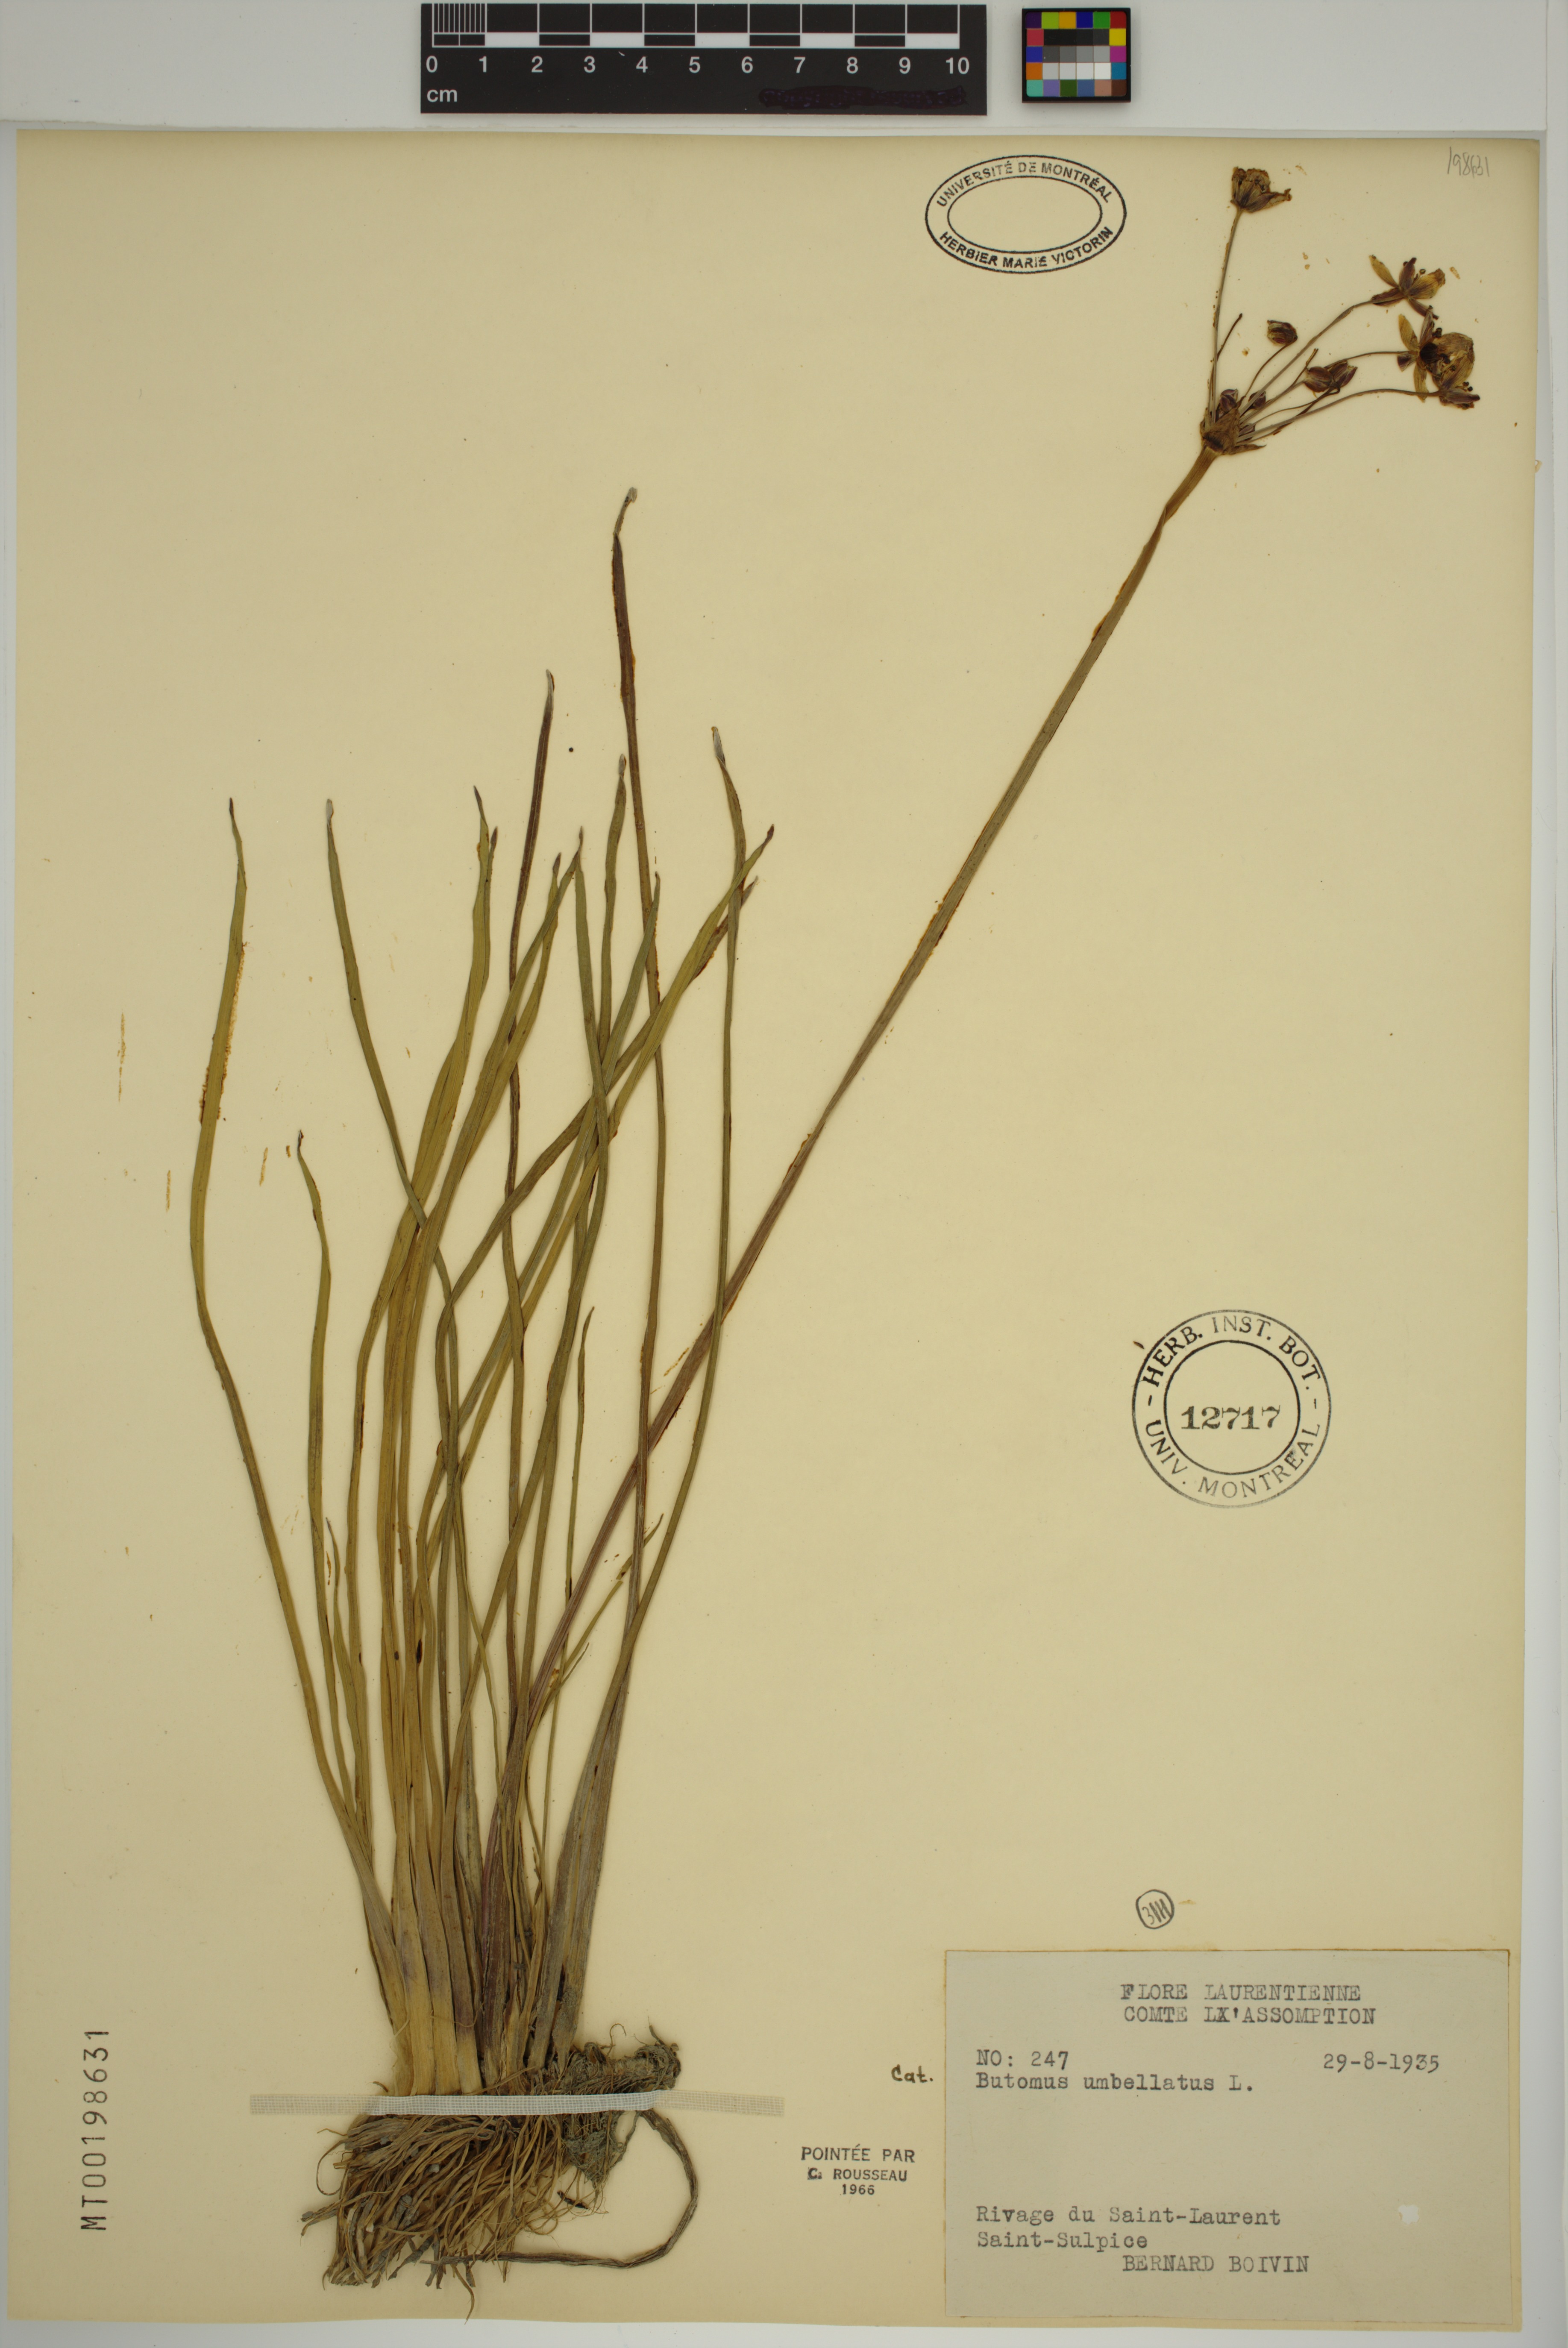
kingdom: Plantae
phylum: Tracheophyta
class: Liliopsida
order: Alismatales
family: Butomaceae
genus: Butomus
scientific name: Butomus umbellatus
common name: Flowering-rush
